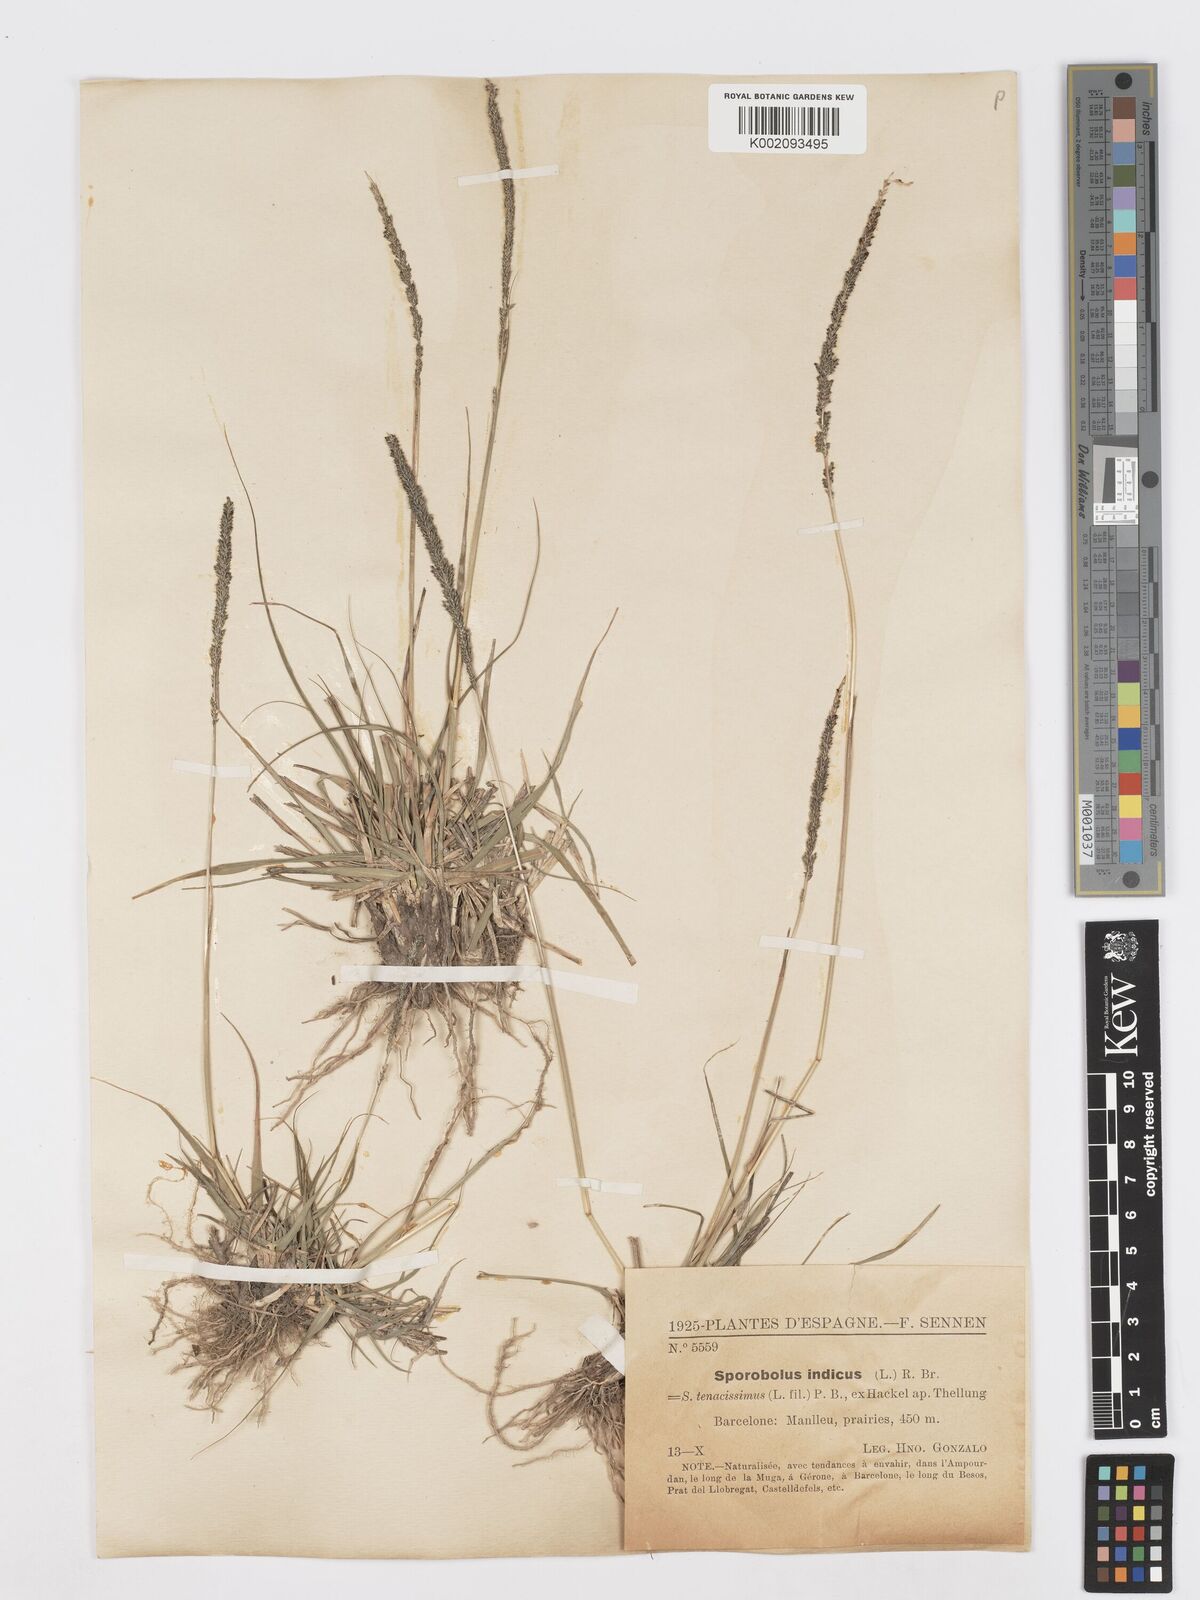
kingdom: Plantae
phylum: Tracheophyta
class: Liliopsida
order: Poales
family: Poaceae
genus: Sporobolus
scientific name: Sporobolus indicus
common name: Smut grass
